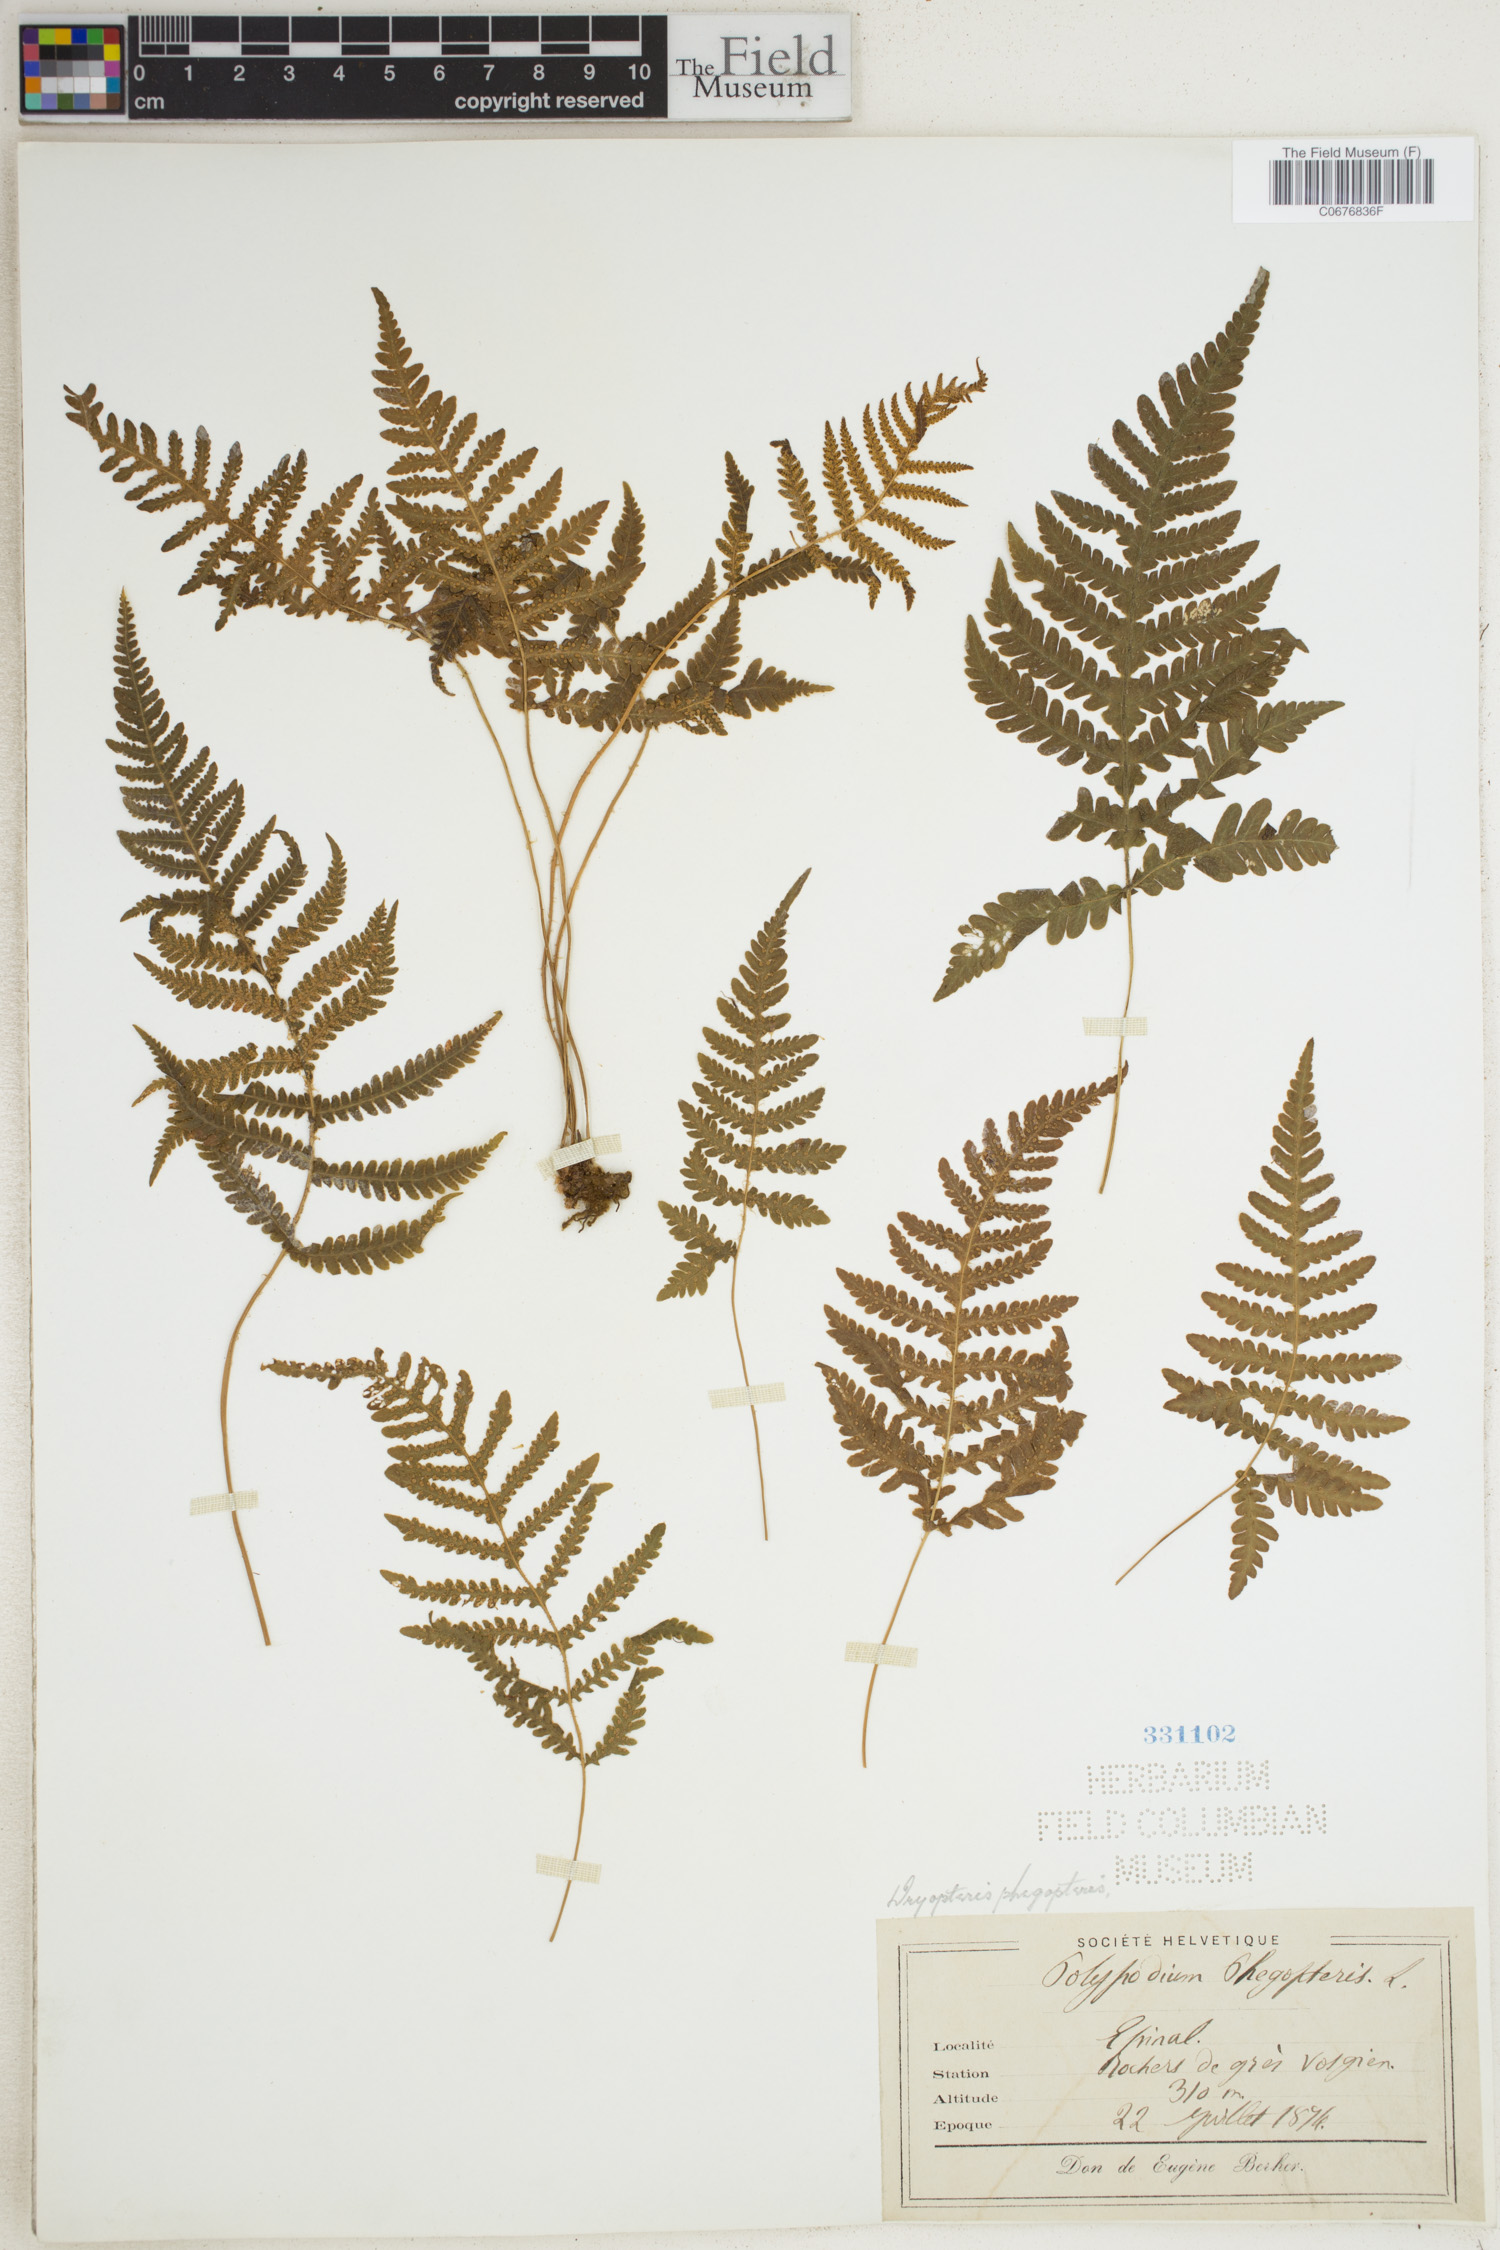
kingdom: Plantae
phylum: Tracheophyta
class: Polypodiopsida
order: Polypodiales
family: Thelypteridaceae
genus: Phegopteris
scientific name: Phegopteris connectilis
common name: Beech fern
